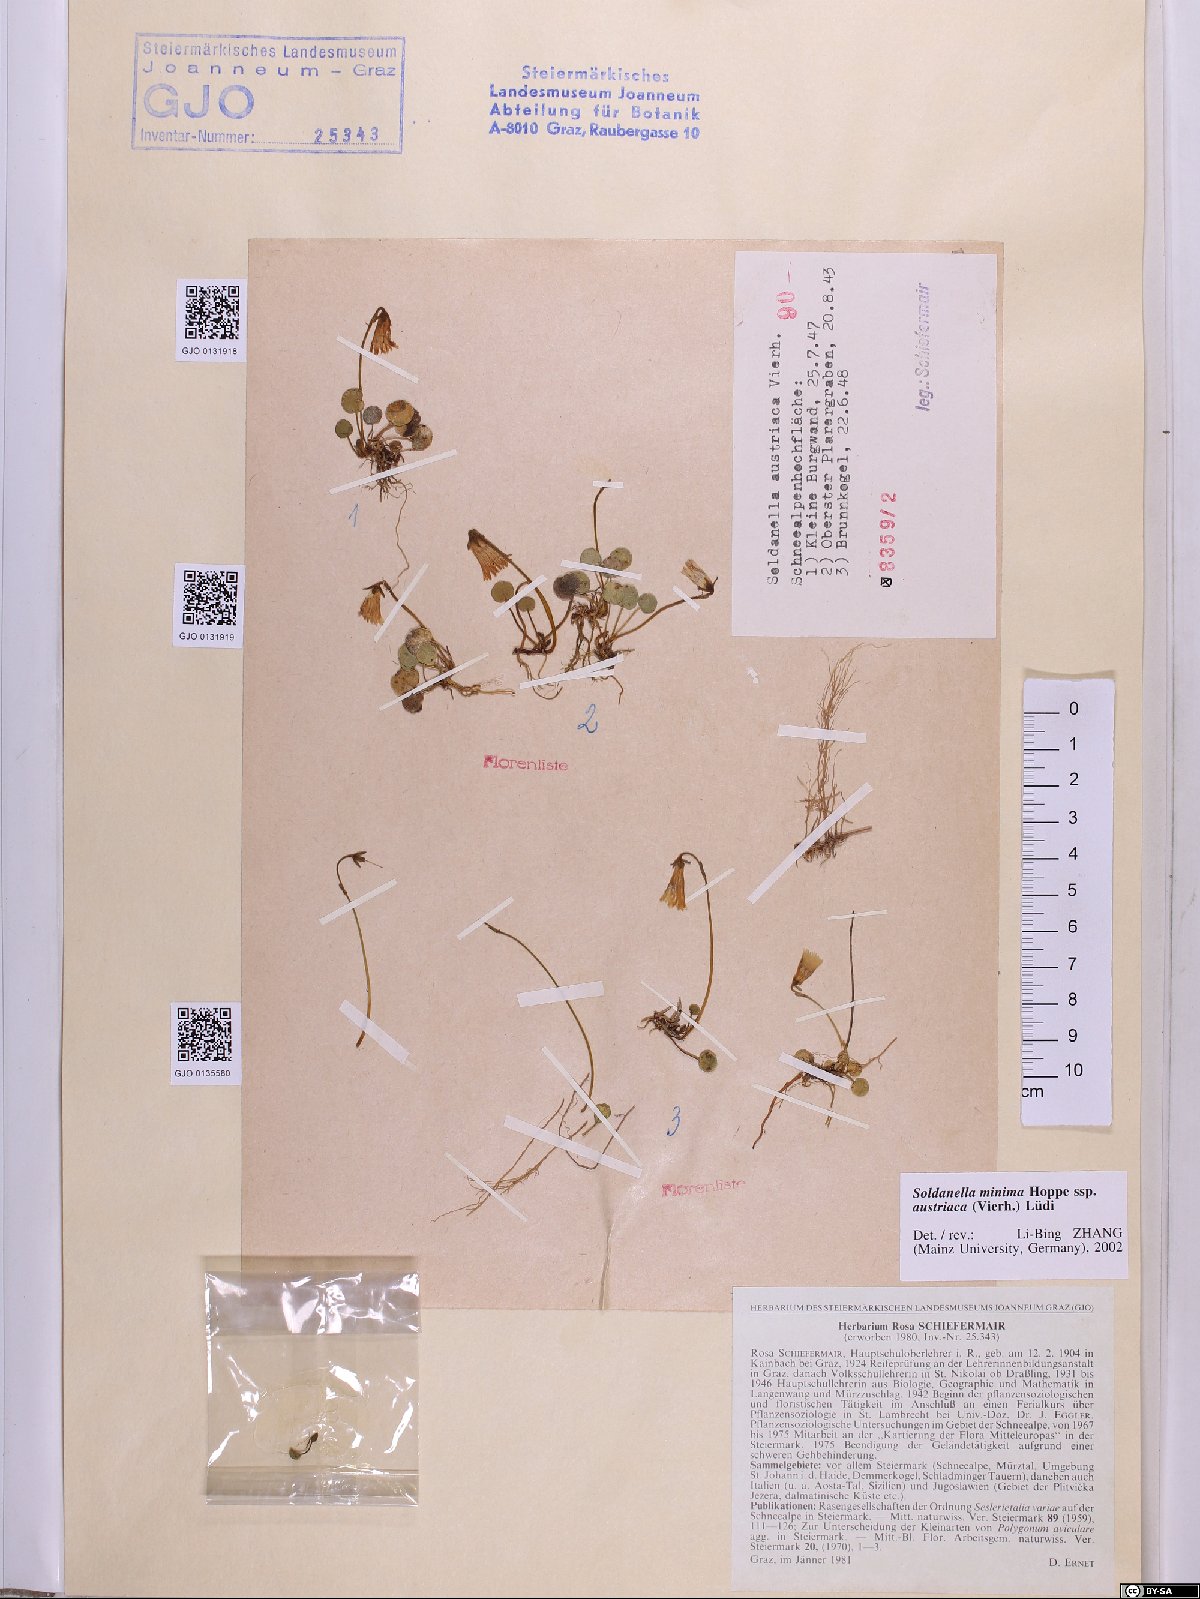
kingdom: Plantae
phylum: Tracheophyta
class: Magnoliopsida
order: Ericales
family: Primulaceae
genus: Soldanella
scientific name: Soldanella austriaca
